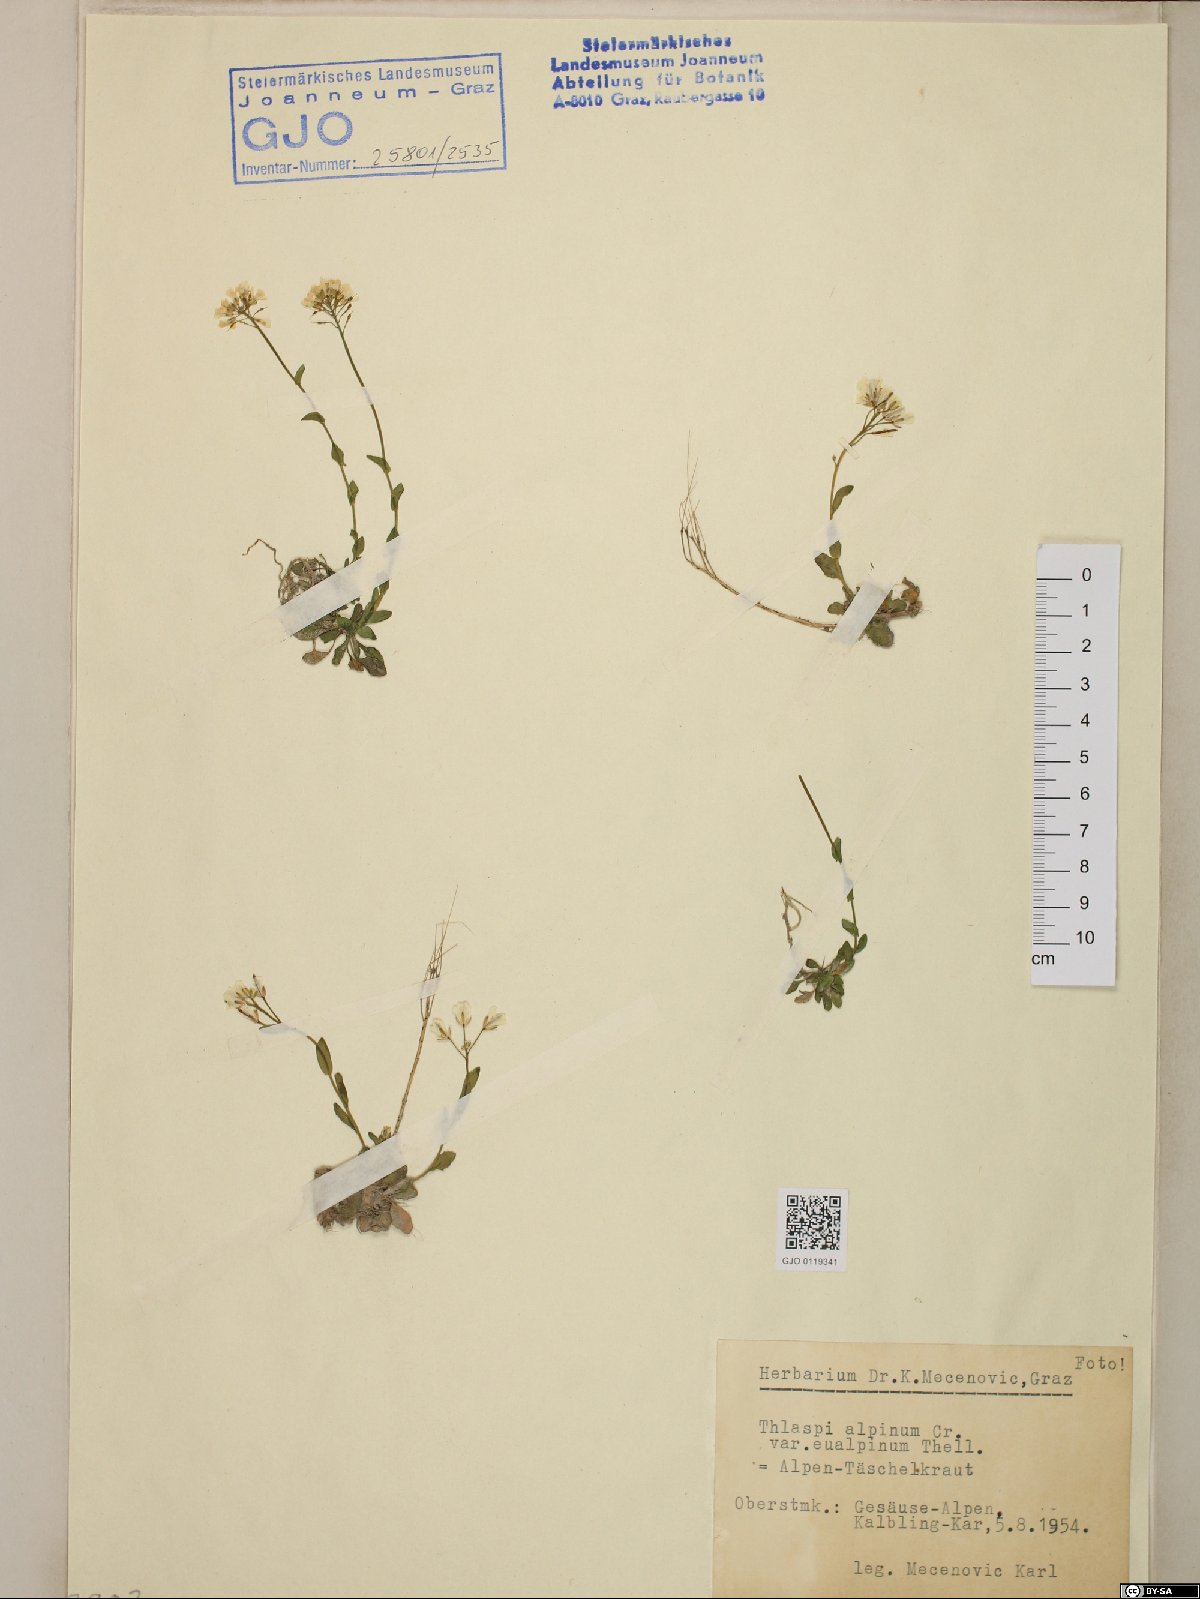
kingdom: Plantae
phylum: Tracheophyta
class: Magnoliopsida
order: Brassicales
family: Brassicaceae
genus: Noccaea
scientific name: Noccaea alpestris
